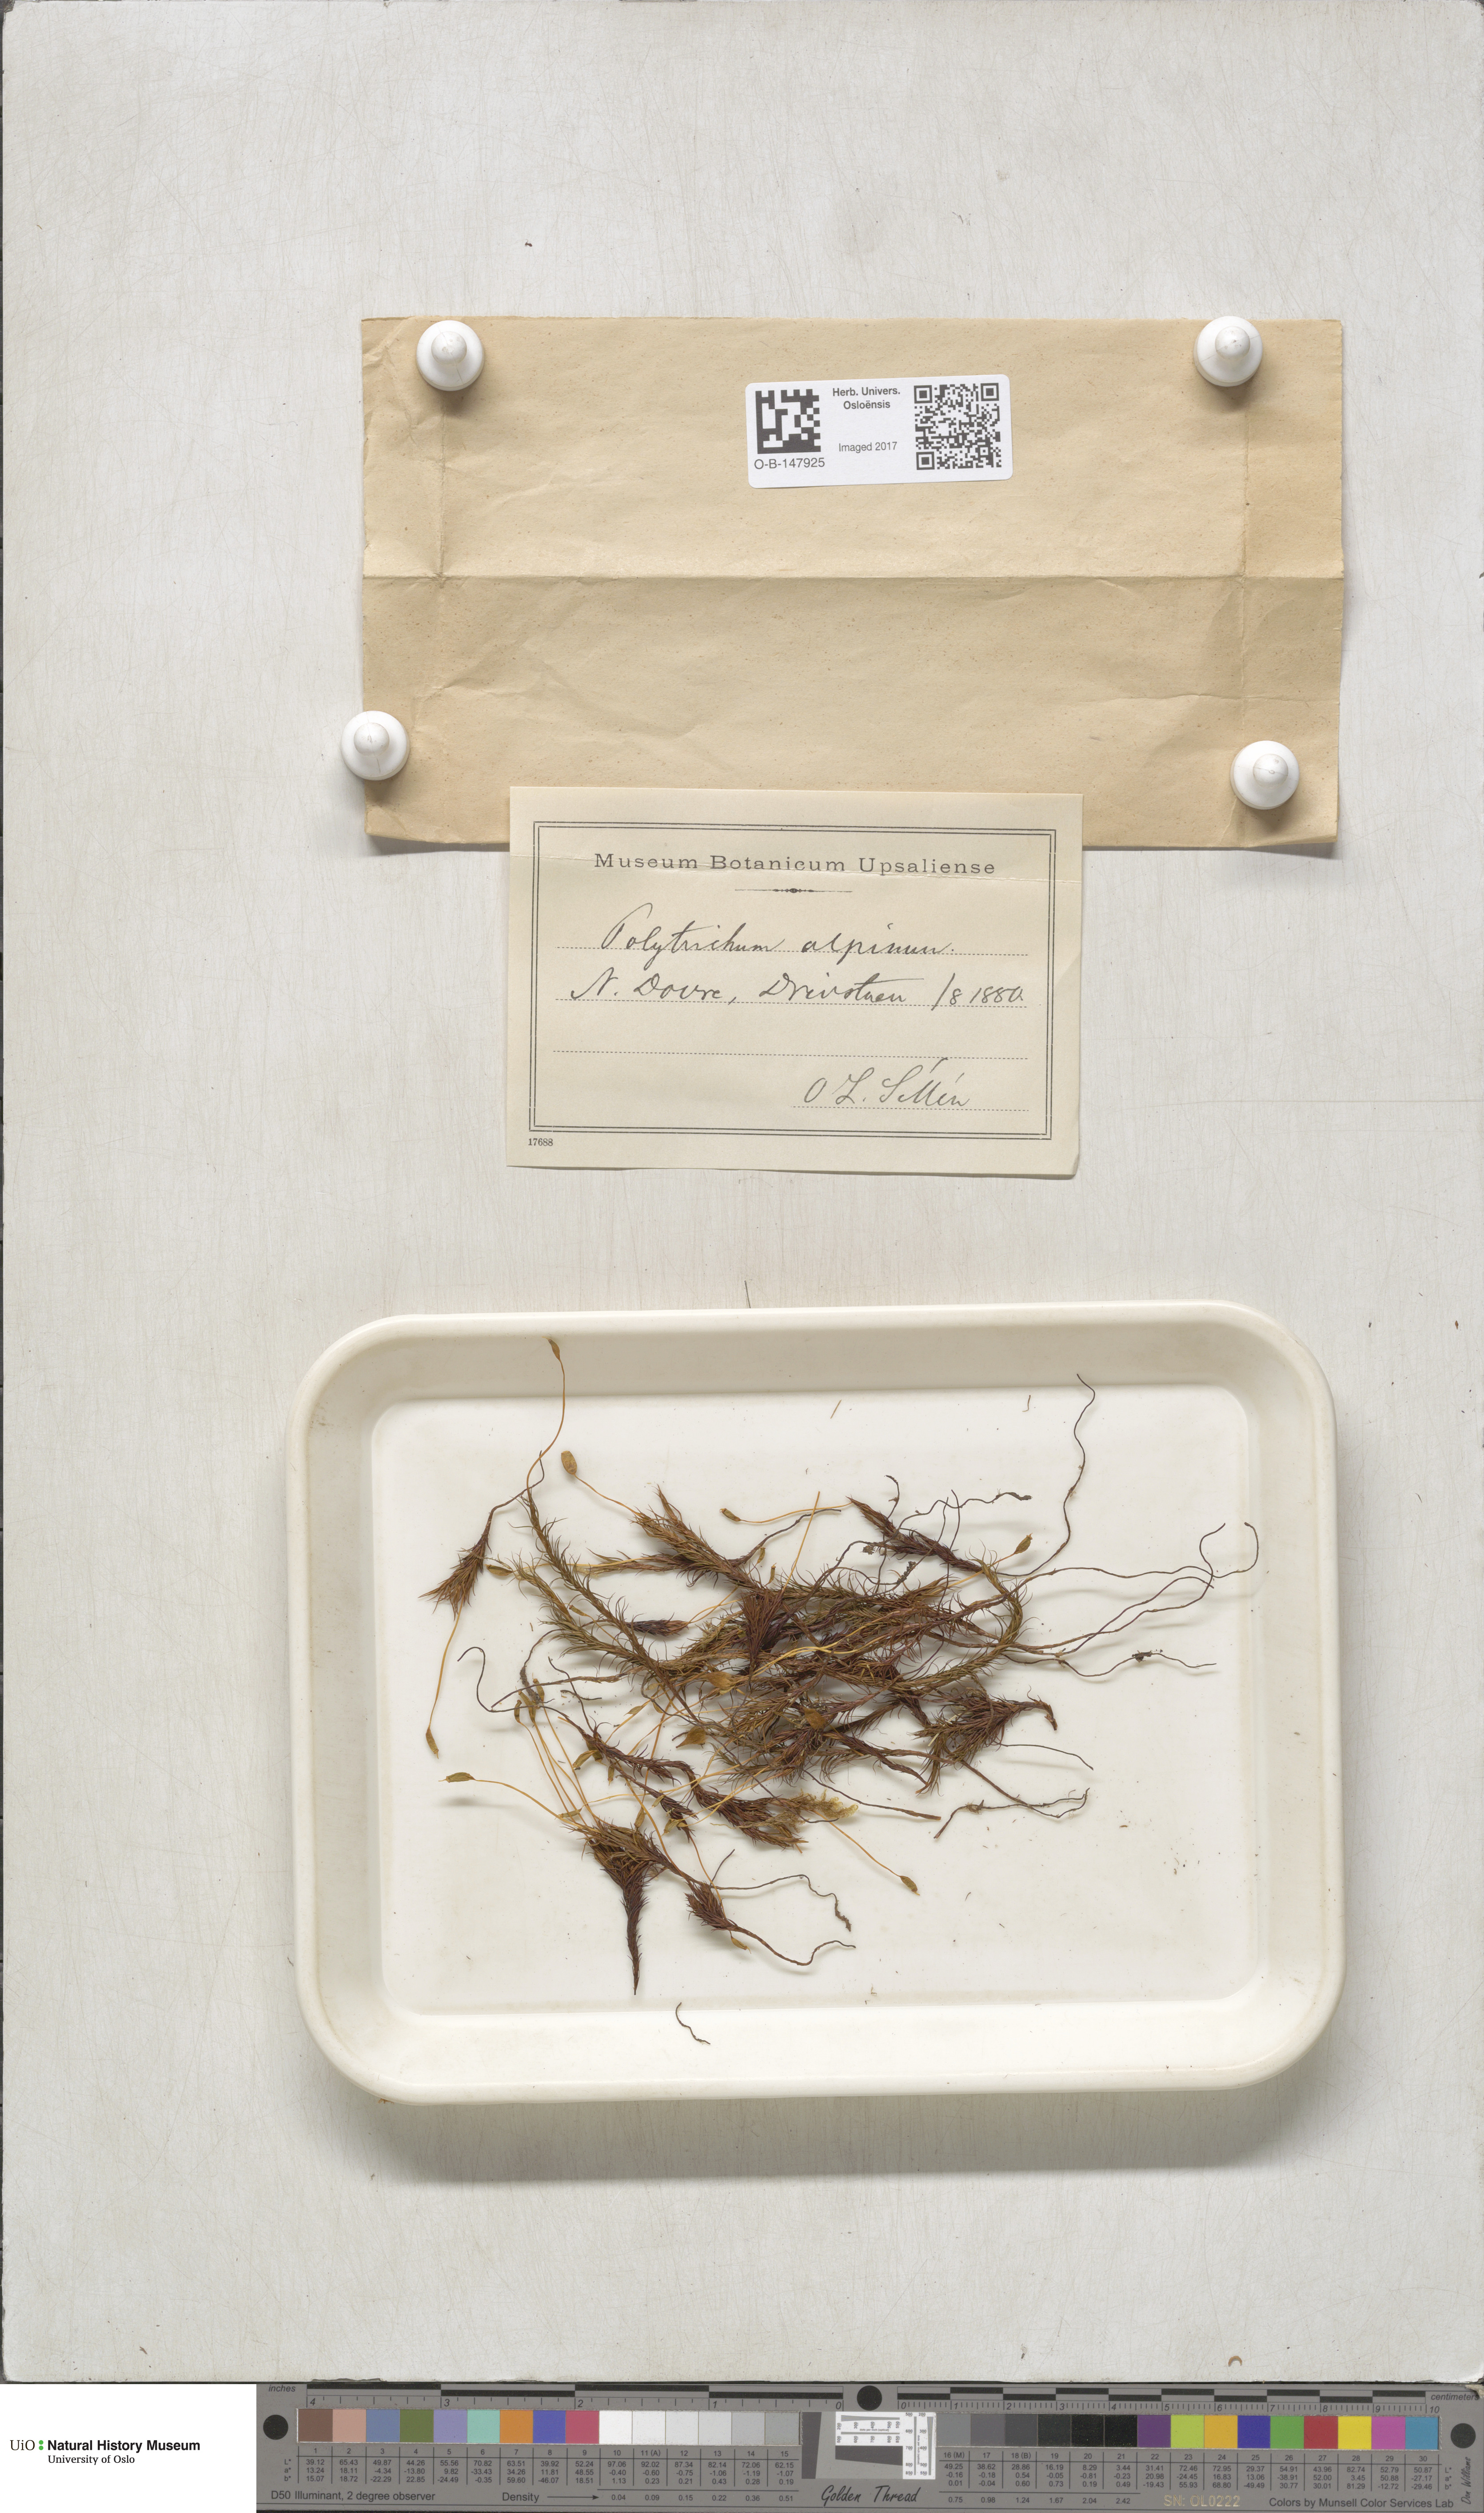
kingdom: Plantae
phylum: Bryophyta
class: Polytrichopsida
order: Polytrichales
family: Polytrichaceae
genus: Polytrichastrum
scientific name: Polytrichastrum alpinum
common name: Alpine haircap
